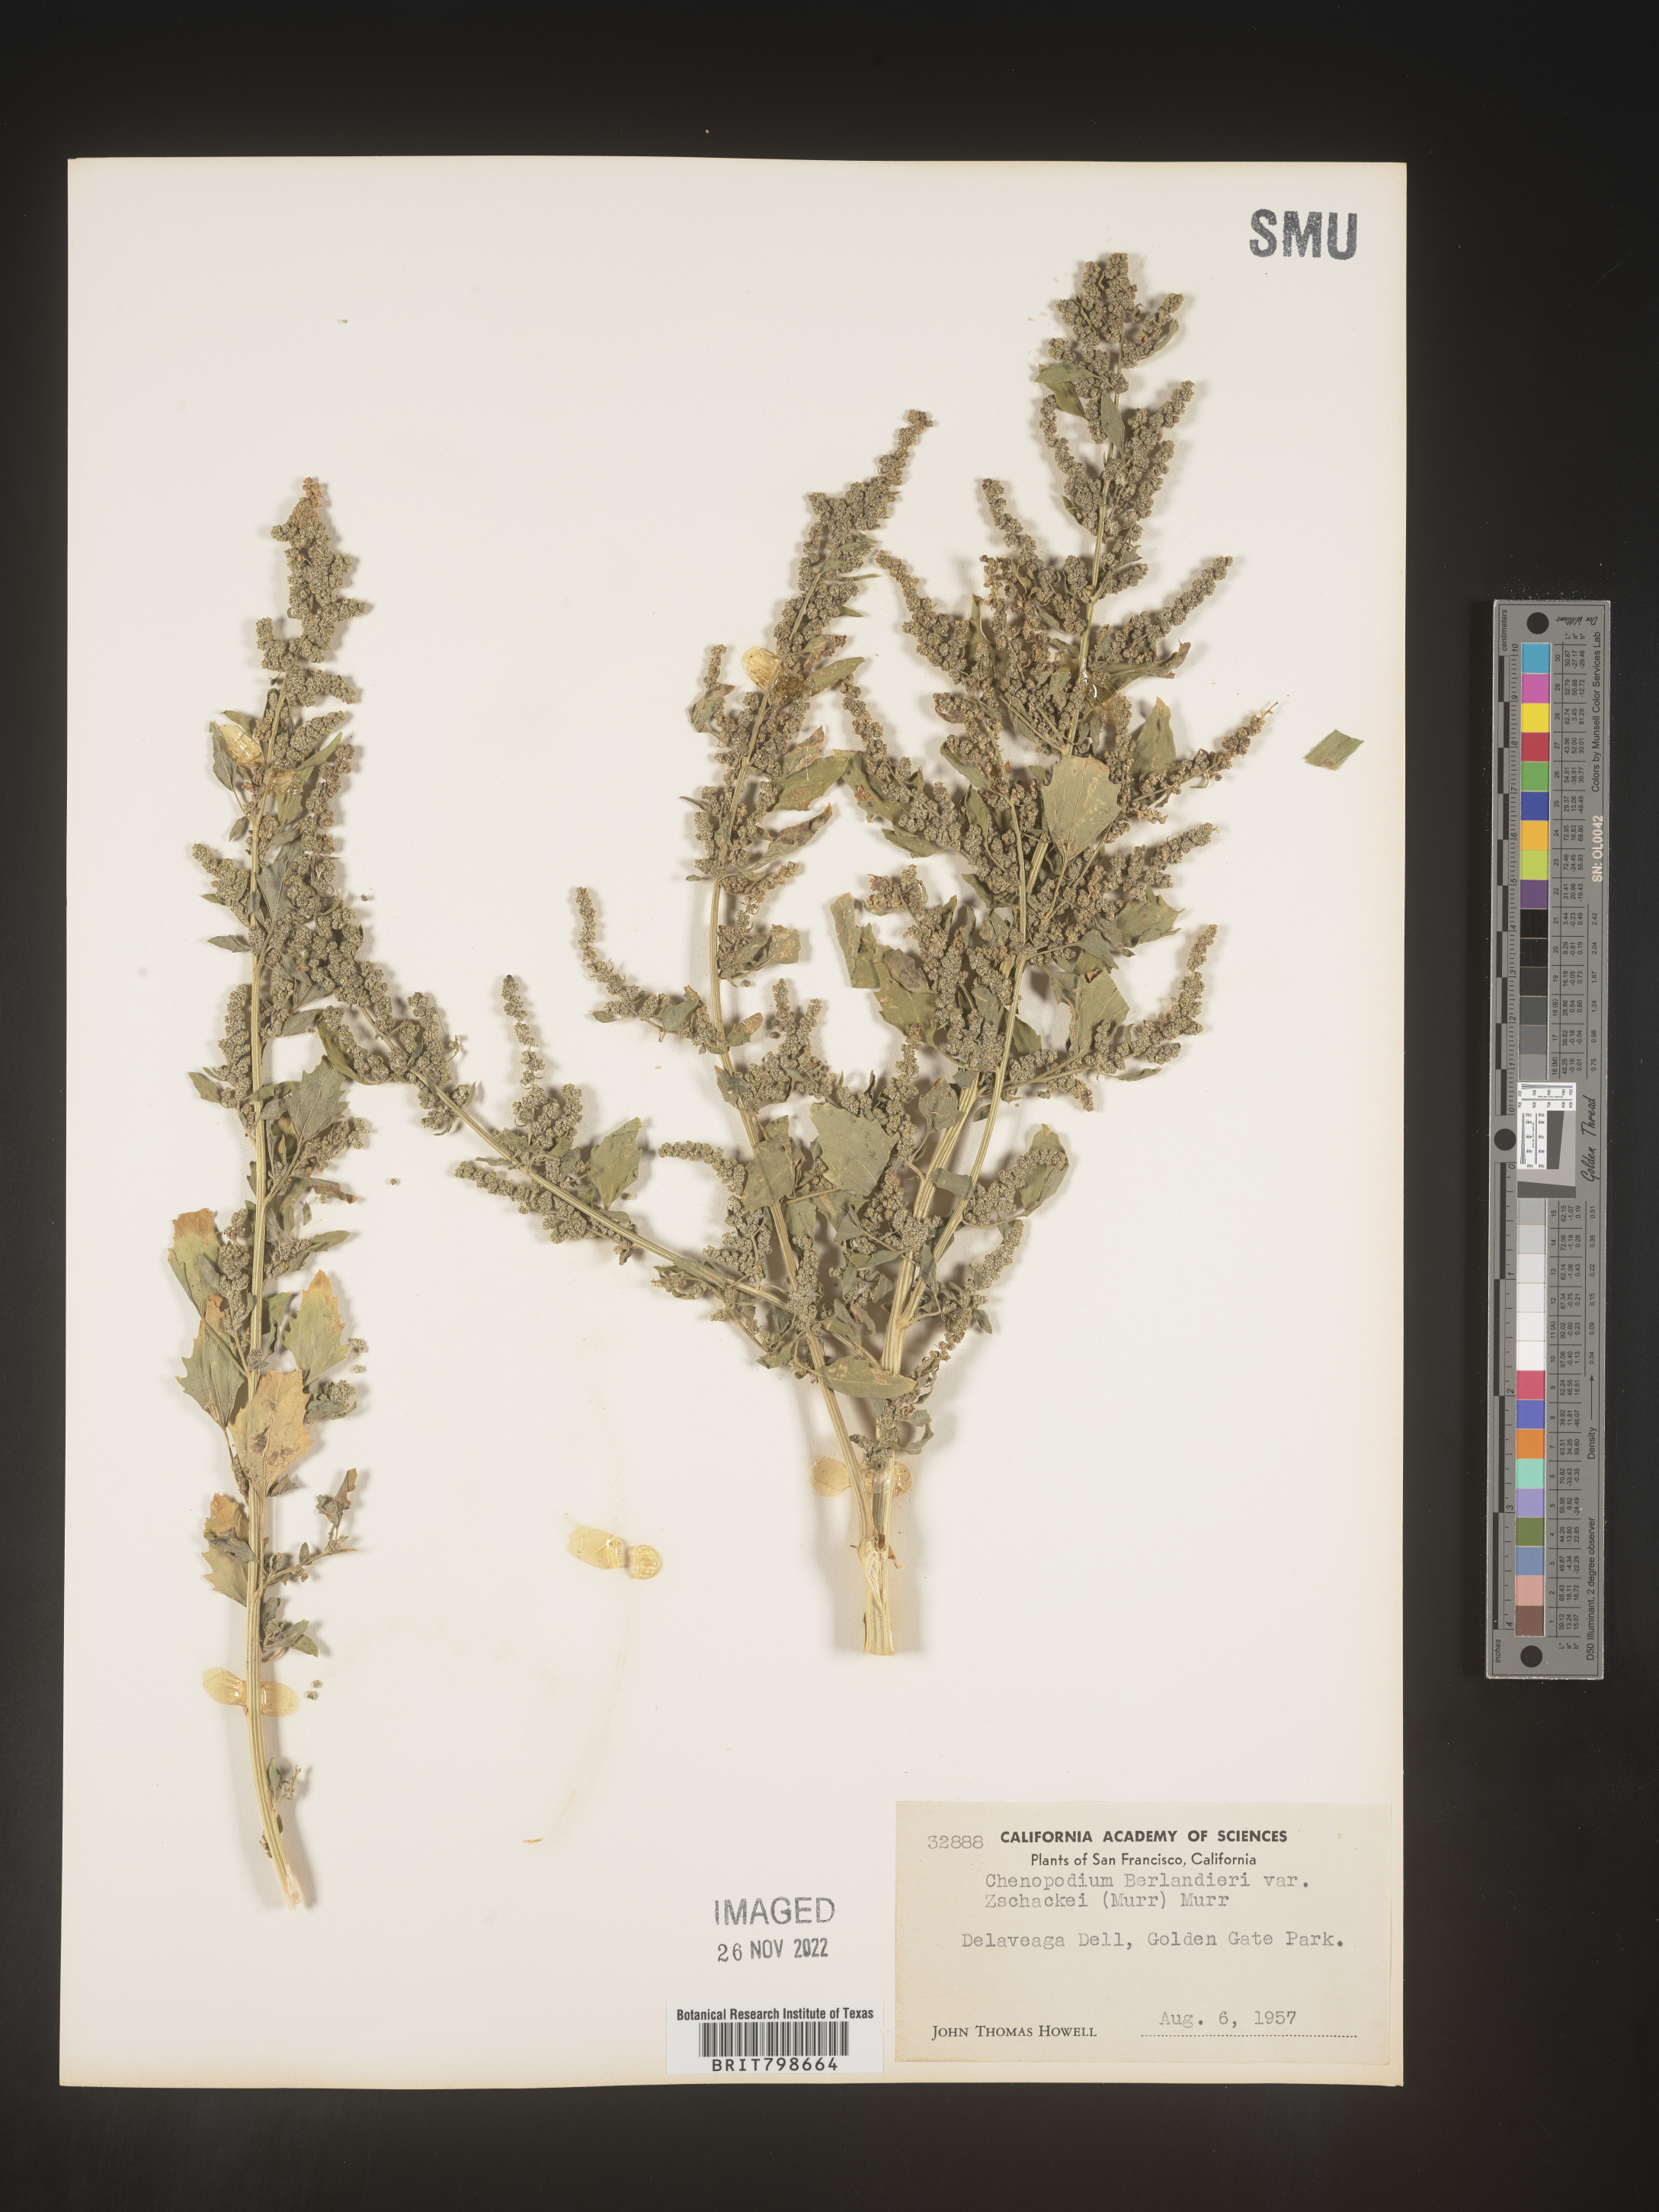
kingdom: Plantae
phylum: Tracheophyta
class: Magnoliopsida
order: Caryophyllales
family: Amaranthaceae
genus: Chenopodium
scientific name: Chenopodium berlandieri
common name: Pit-seed goosefoot
